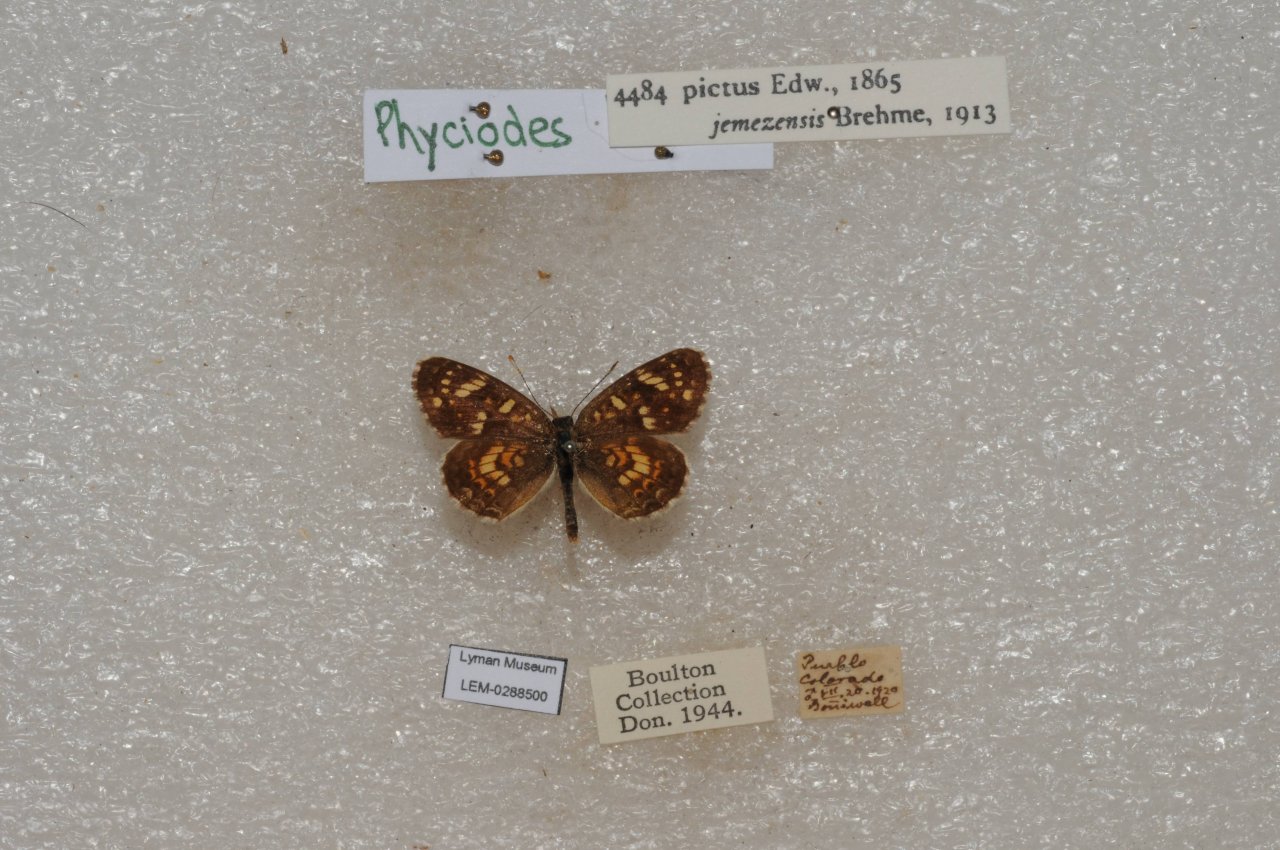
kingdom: Animalia
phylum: Arthropoda
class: Insecta
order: Lepidoptera
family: Nymphalidae
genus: Phyciodes
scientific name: Phyciodes picta
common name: Painted Crescent
